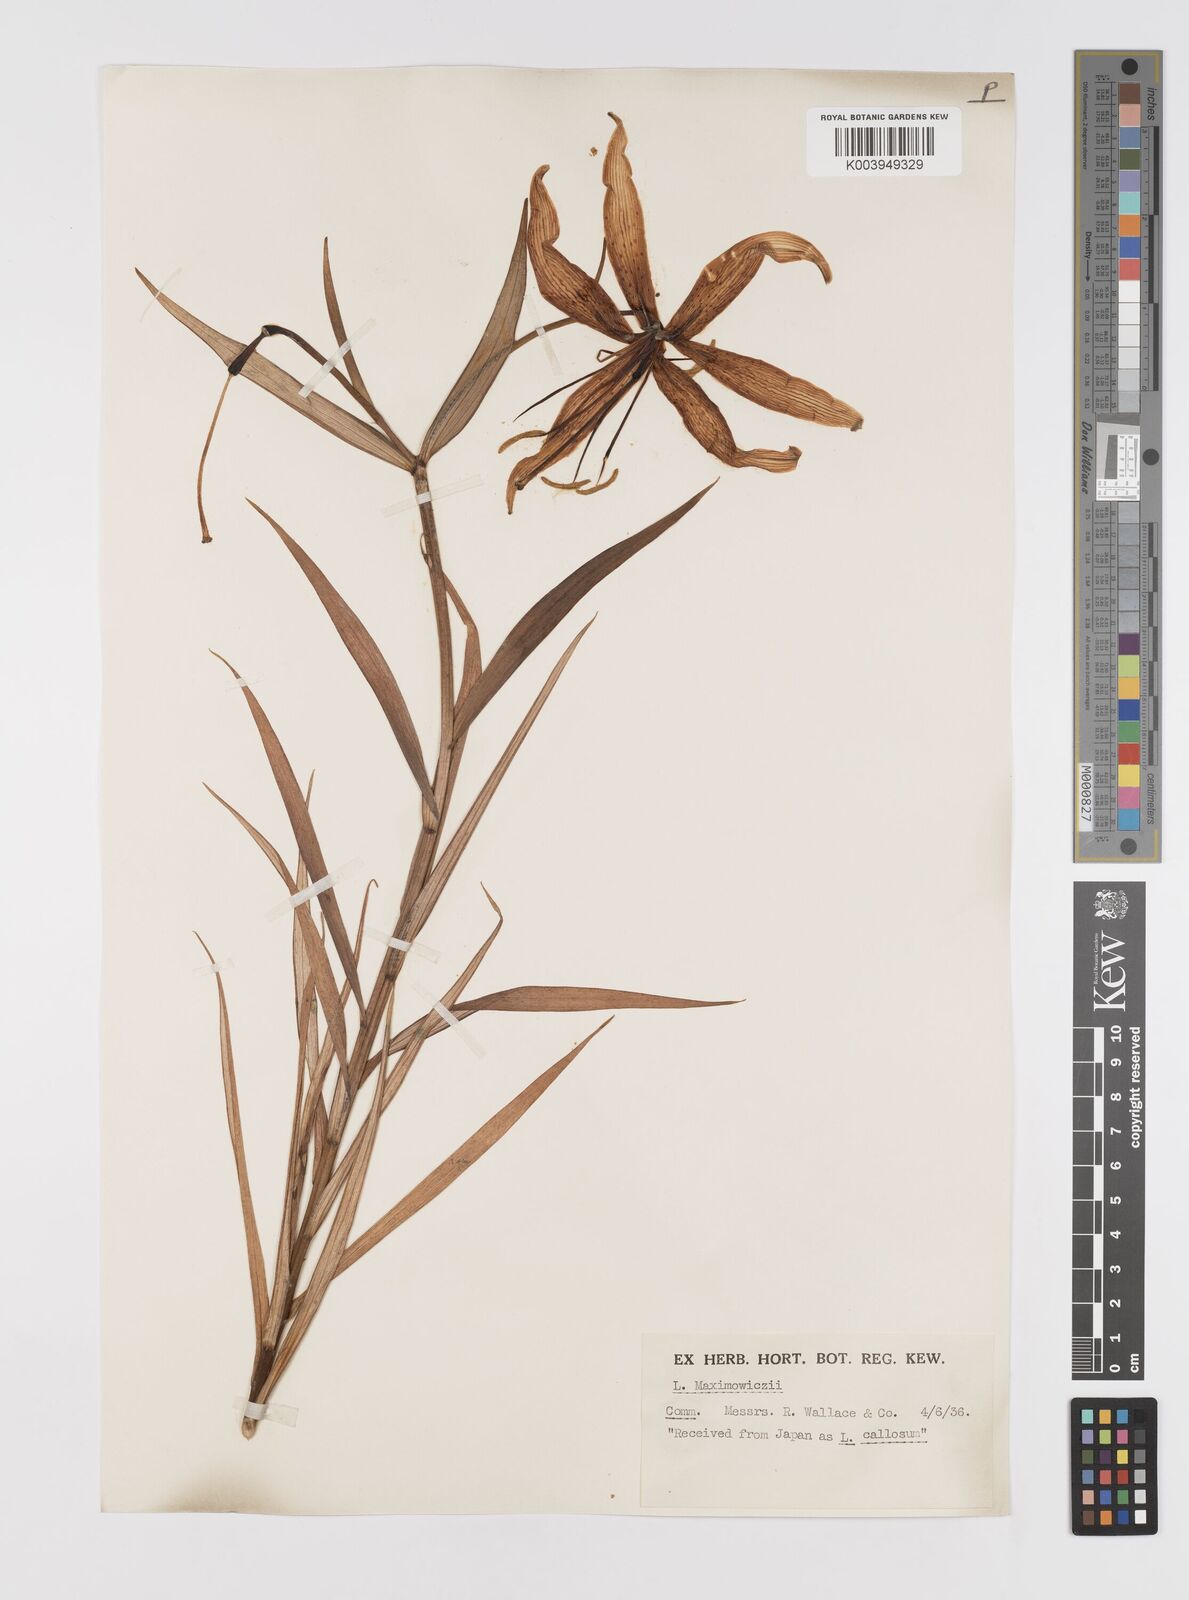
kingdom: Plantae
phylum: Tracheophyta
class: Liliopsida
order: Liliales
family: Liliaceae
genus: Lilium
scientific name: Lilium leichtlinii
